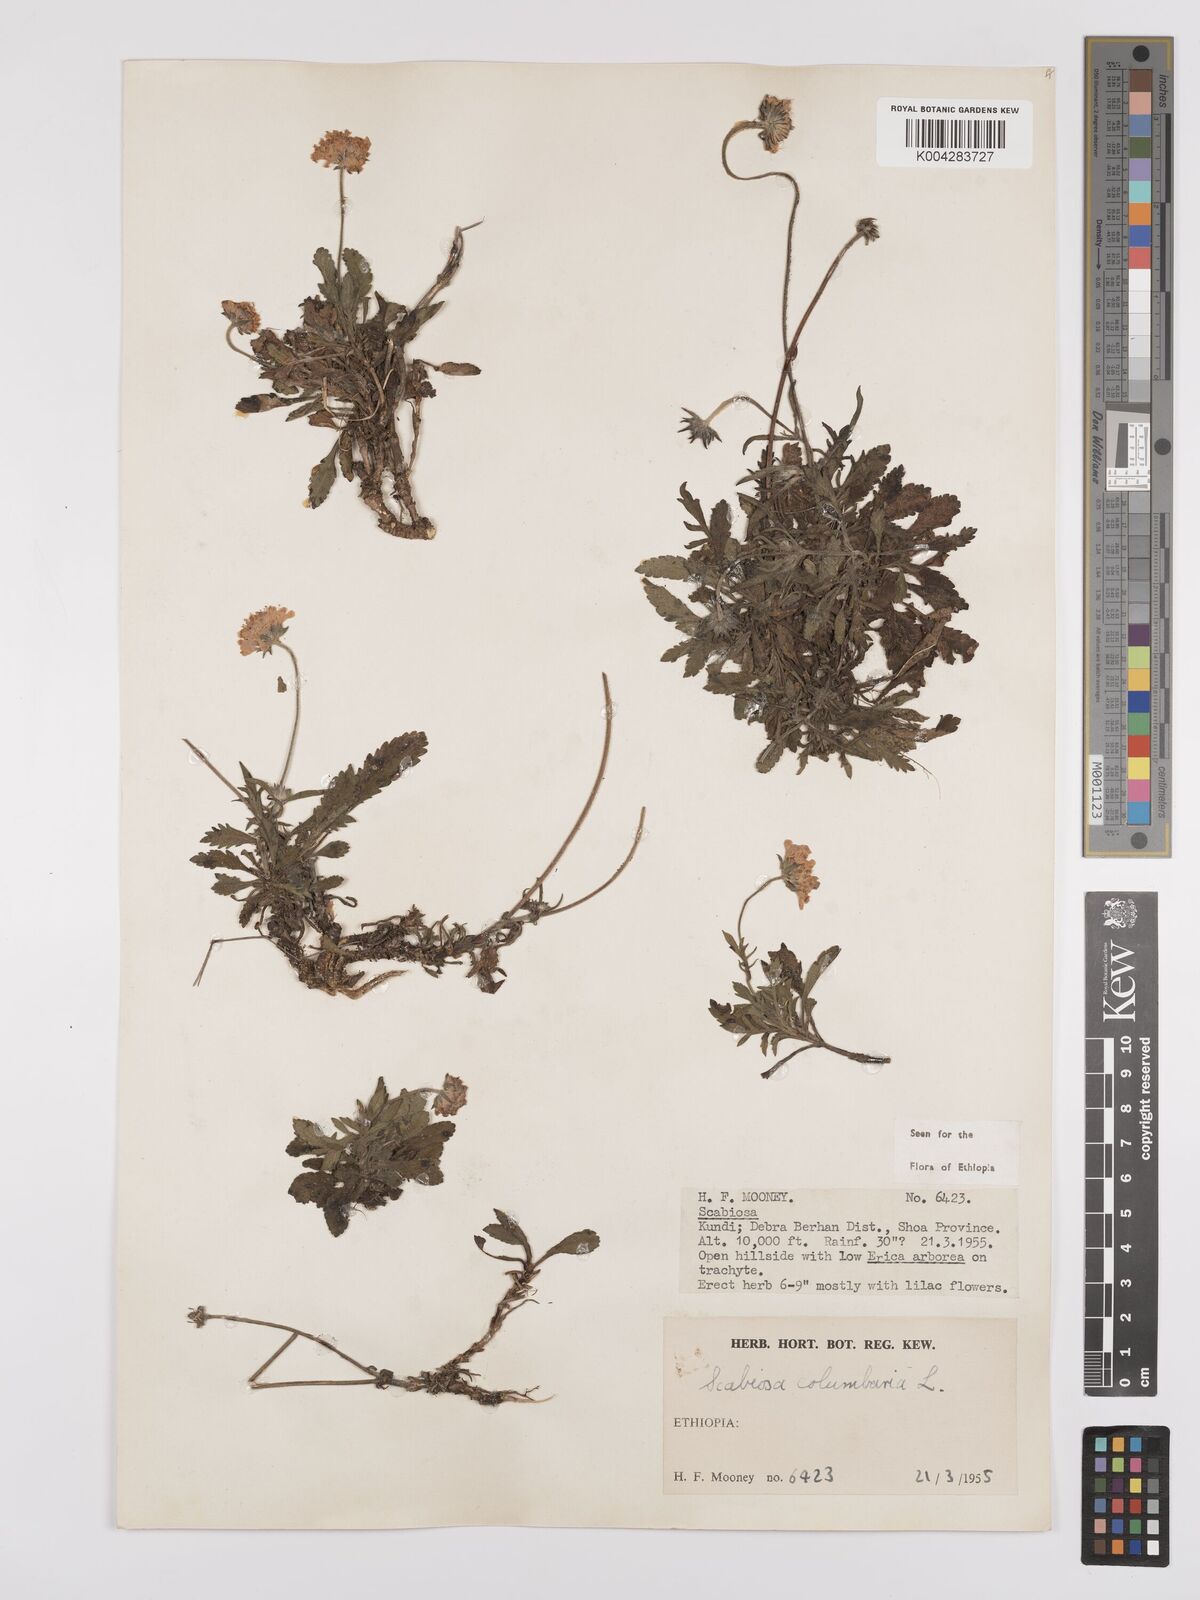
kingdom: Plantae
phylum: Tracheophyta
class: Magnoliopsida
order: Dipsacales
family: Caprifoliaceae
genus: Scabiosa
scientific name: Scabiosa columbaria
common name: Small scabious
